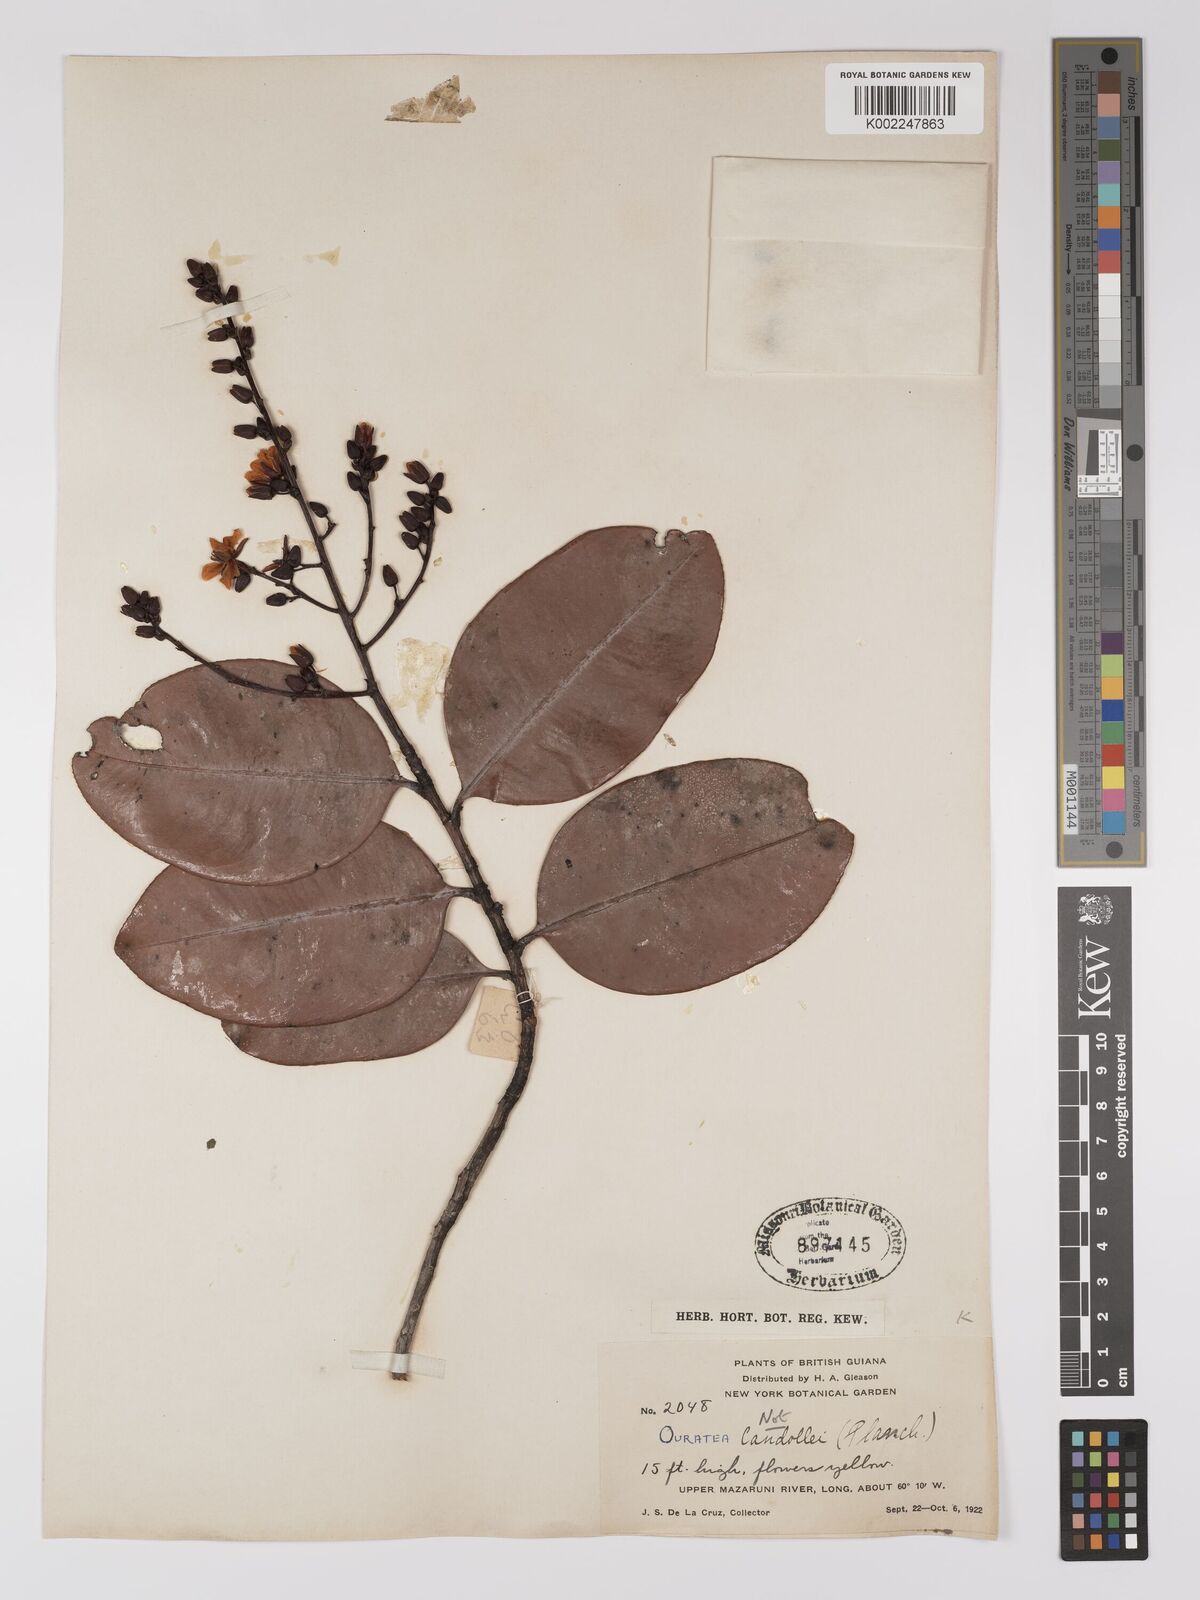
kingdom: Plantae
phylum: Tracheophyta
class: Magnoliopsida
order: Malpighiales
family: Ochnaceae
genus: Ouratea
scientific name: Ouratea
